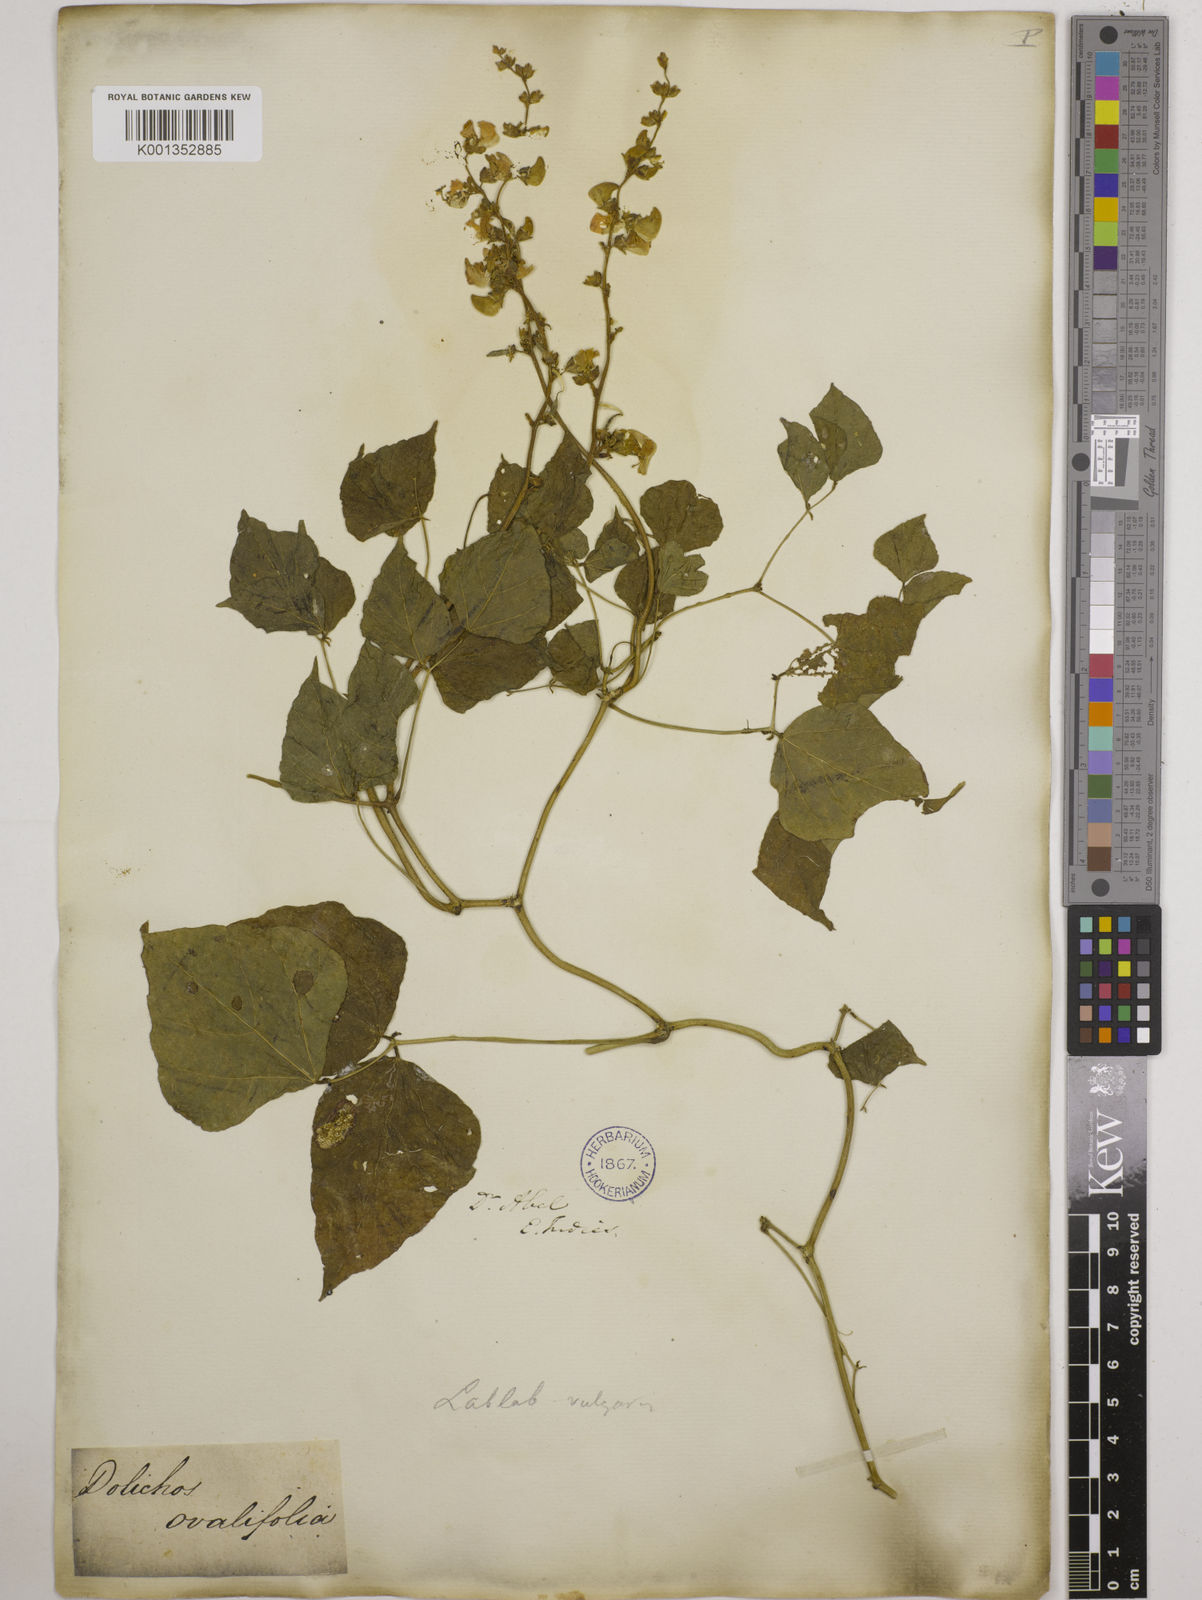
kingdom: Plantae
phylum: Tracheophyta
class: Magnoliopsida
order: Fabales
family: Fabaceae
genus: Lablab
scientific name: Lablab purpureus
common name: Lablab-bean
